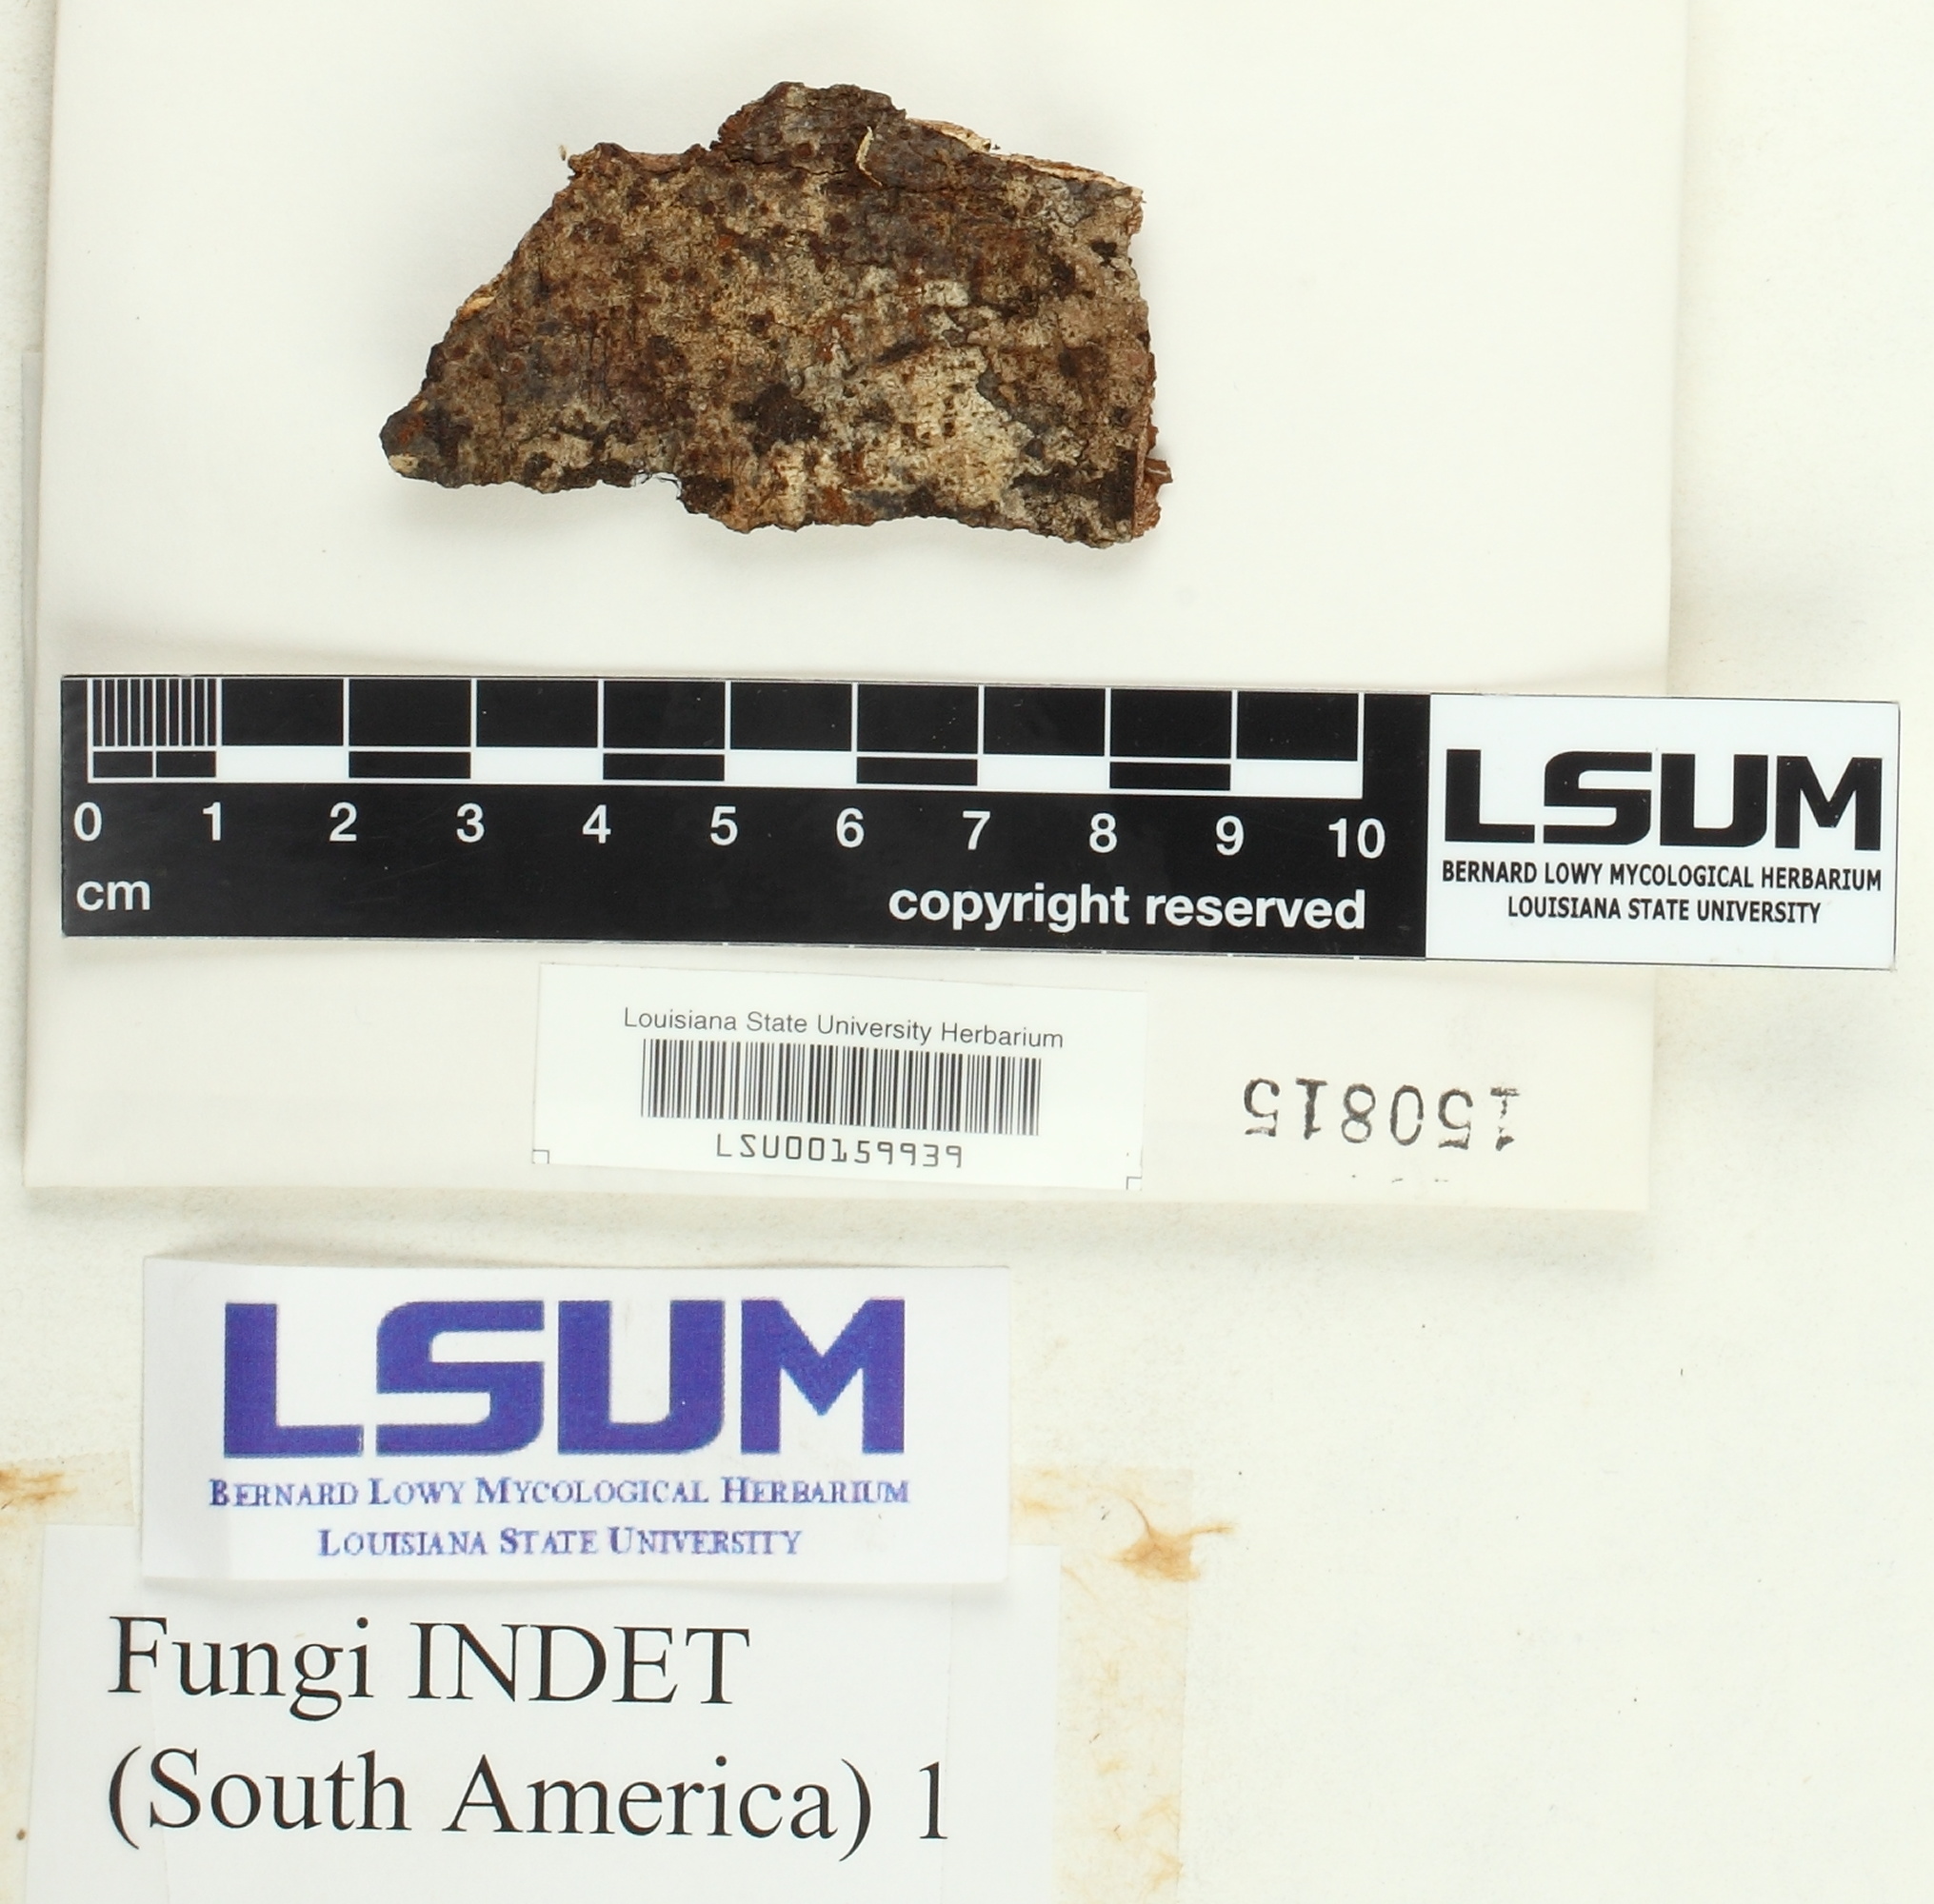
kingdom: Fungi
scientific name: Fungi
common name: Fungi
